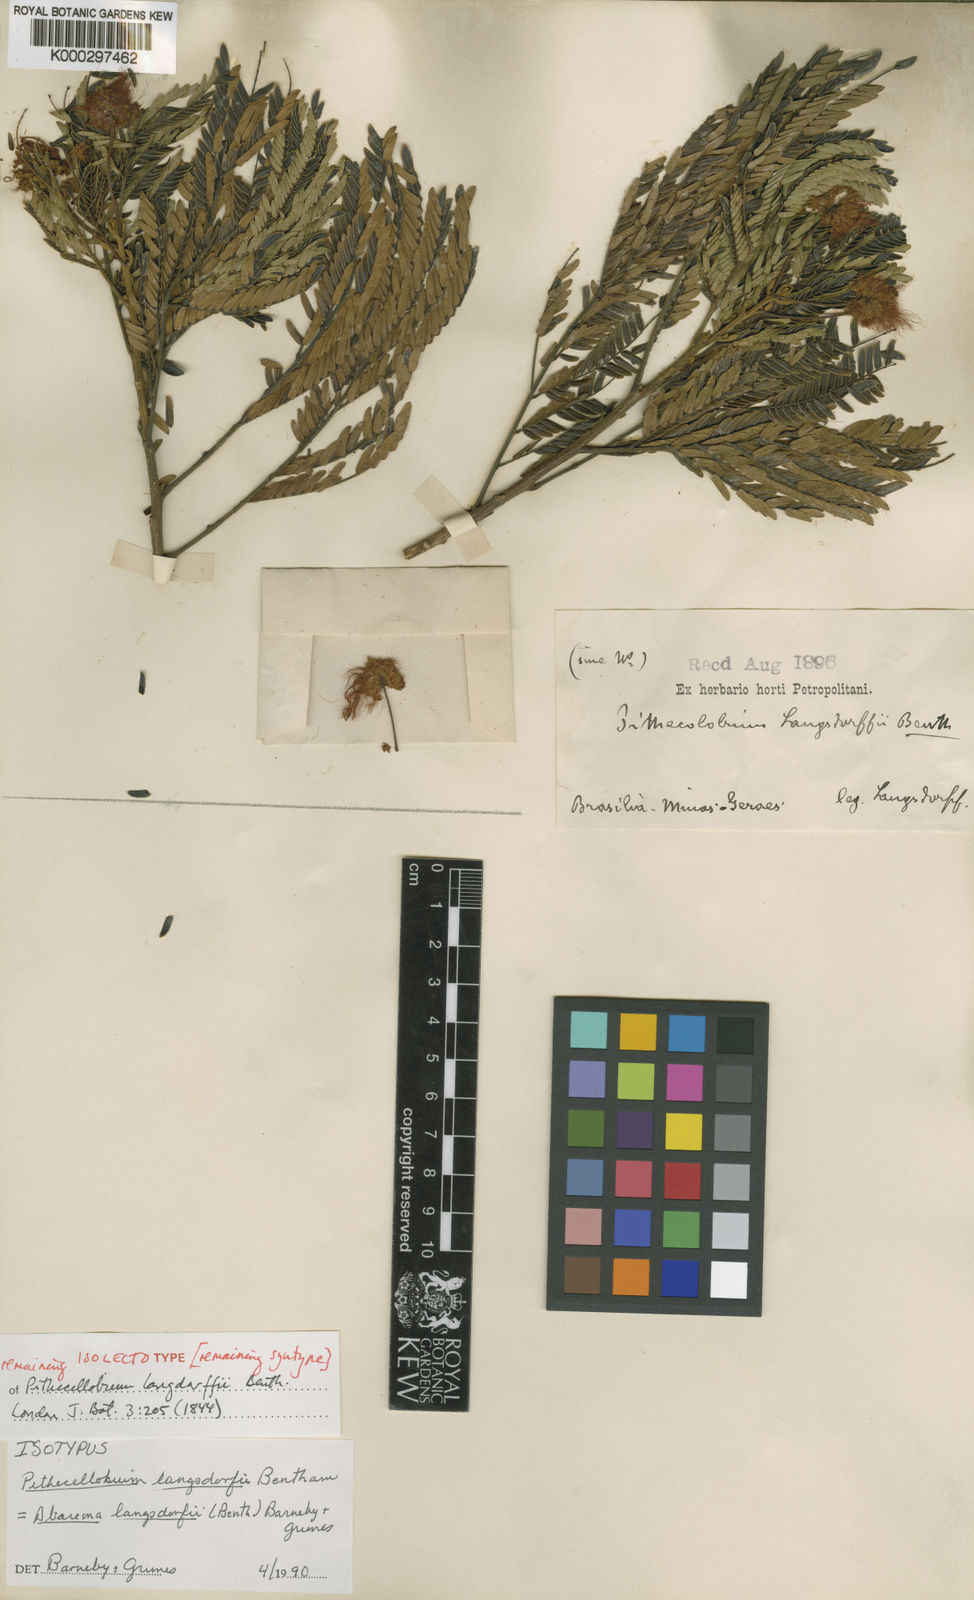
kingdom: Plantae
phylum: Tracheophyta
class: Magnoliopsida
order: Fabales
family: Fabaceae
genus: Jupunba
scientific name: Jupunba langsdorffii
